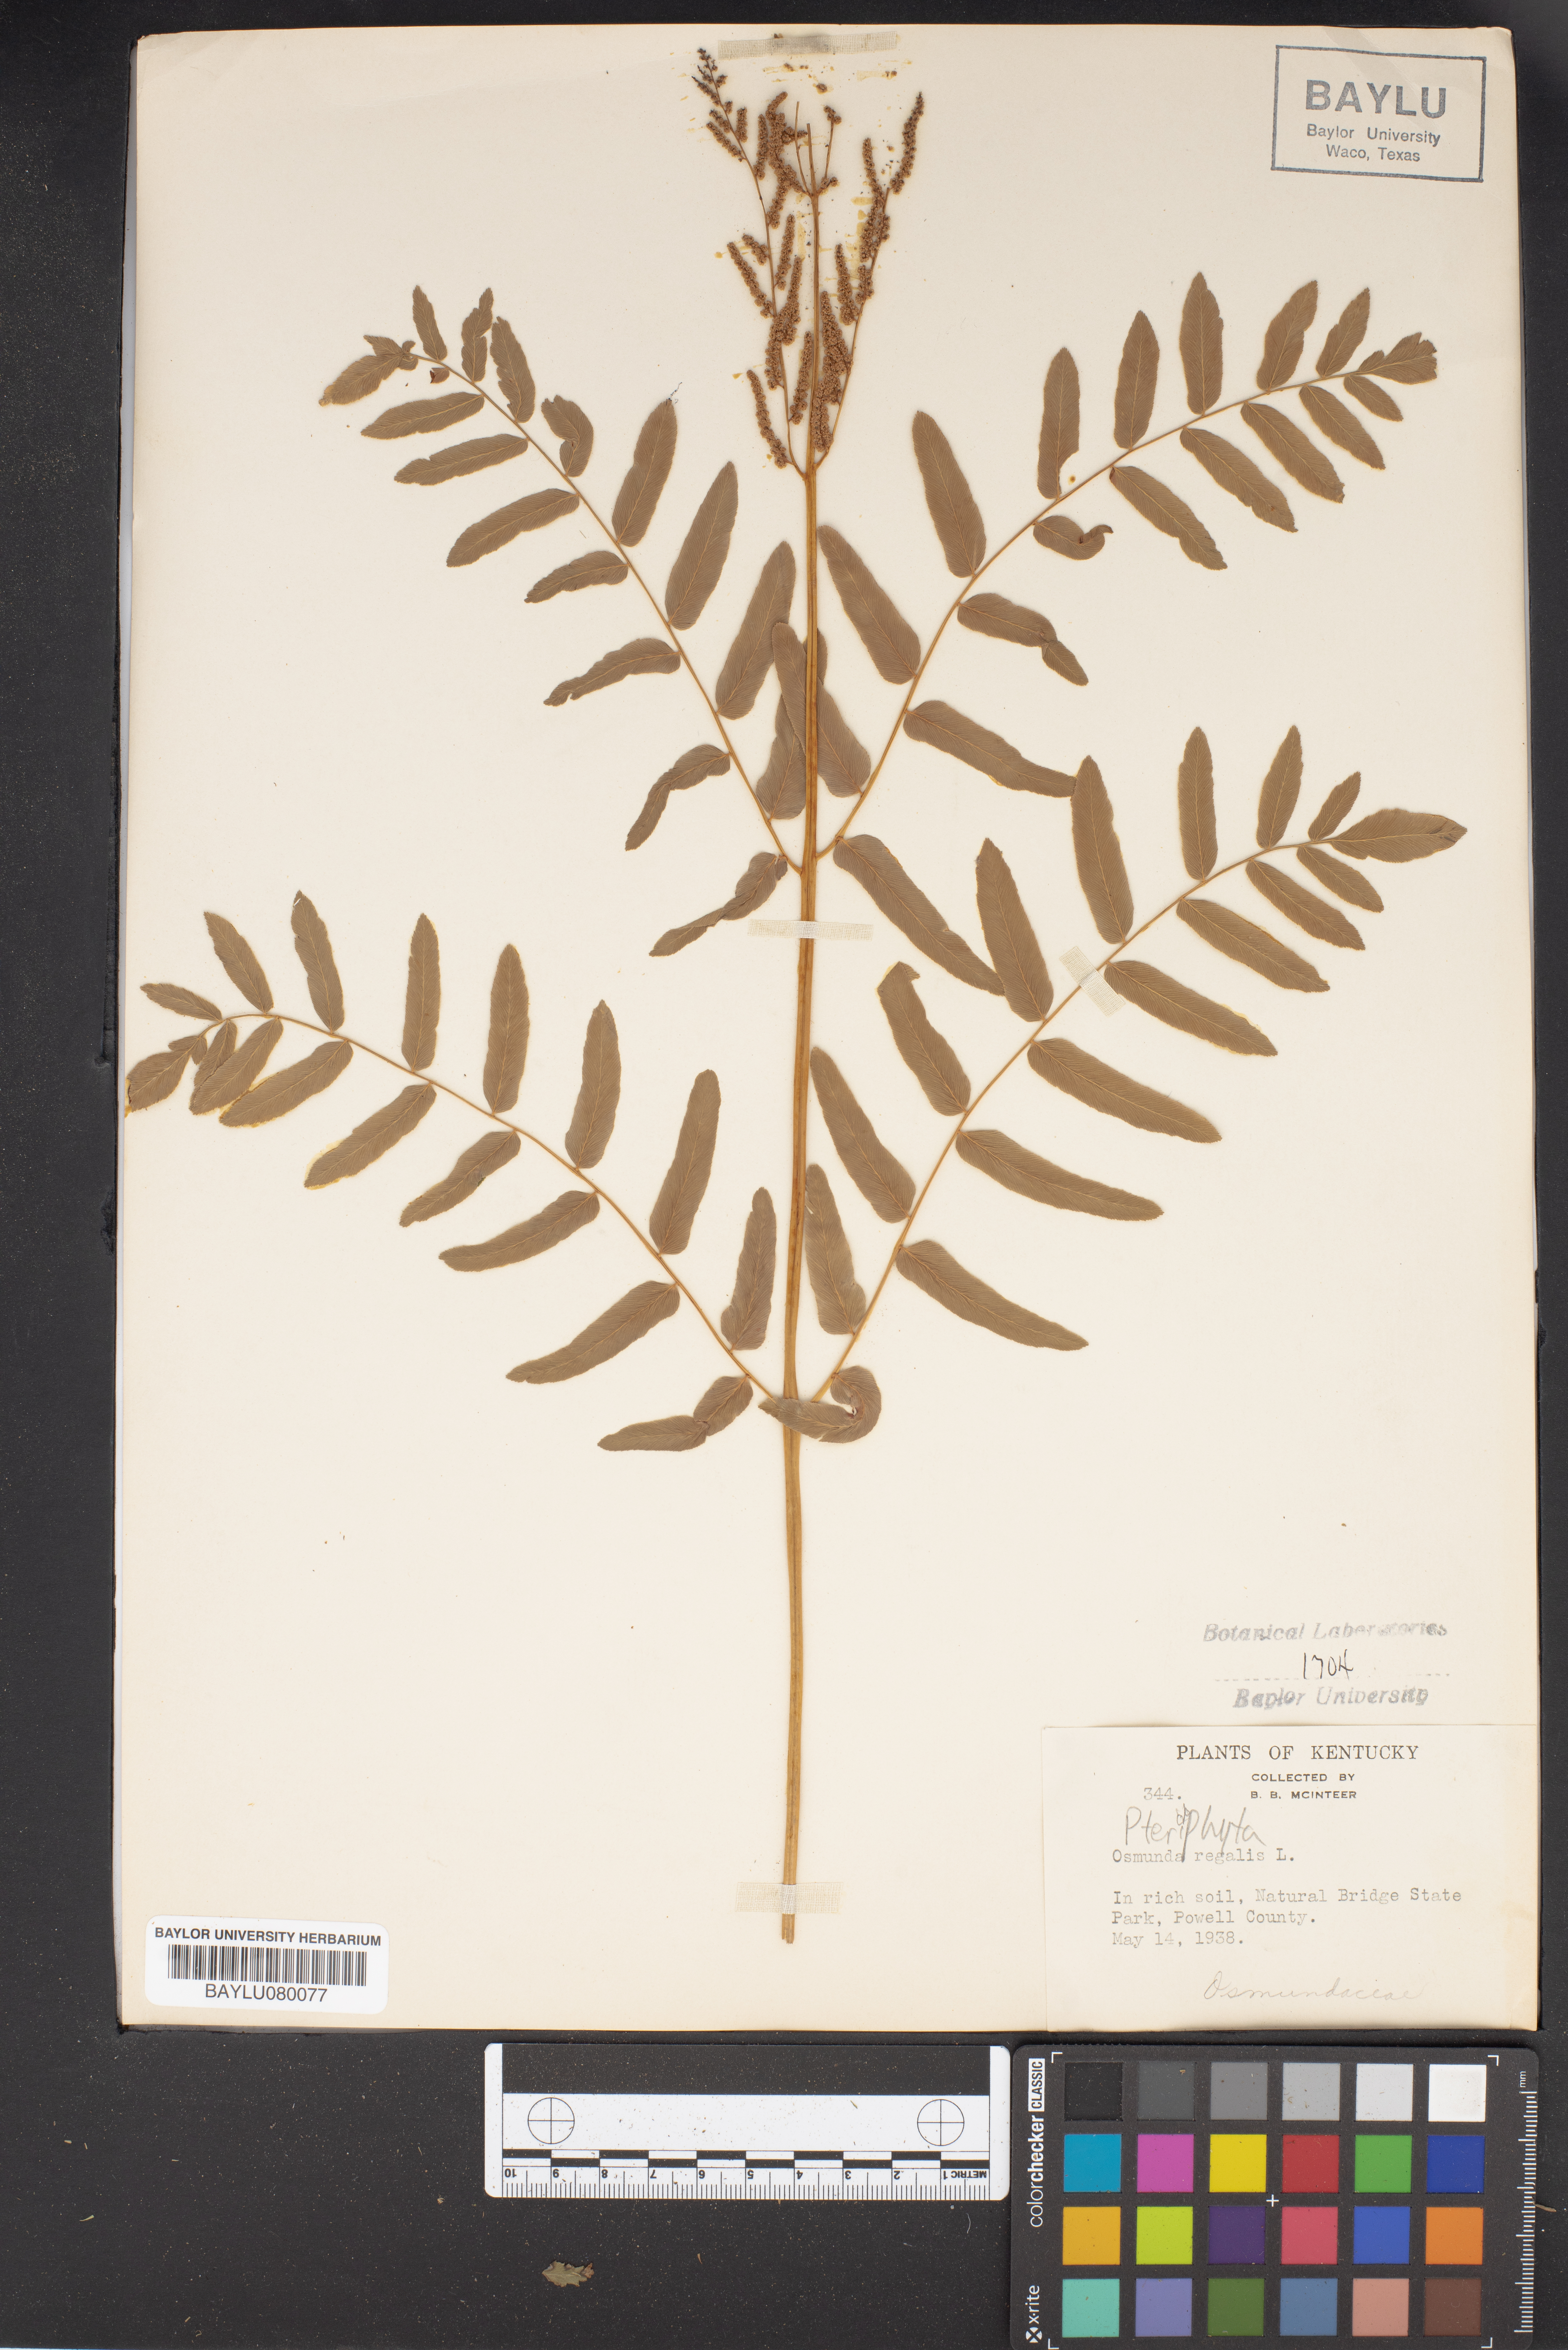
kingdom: Plantae
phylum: Tracheophyta
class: Polypodiopsida
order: Osmundales
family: Osmundaceae
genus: Osmunda
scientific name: Osmunda regalis
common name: Royal fern
